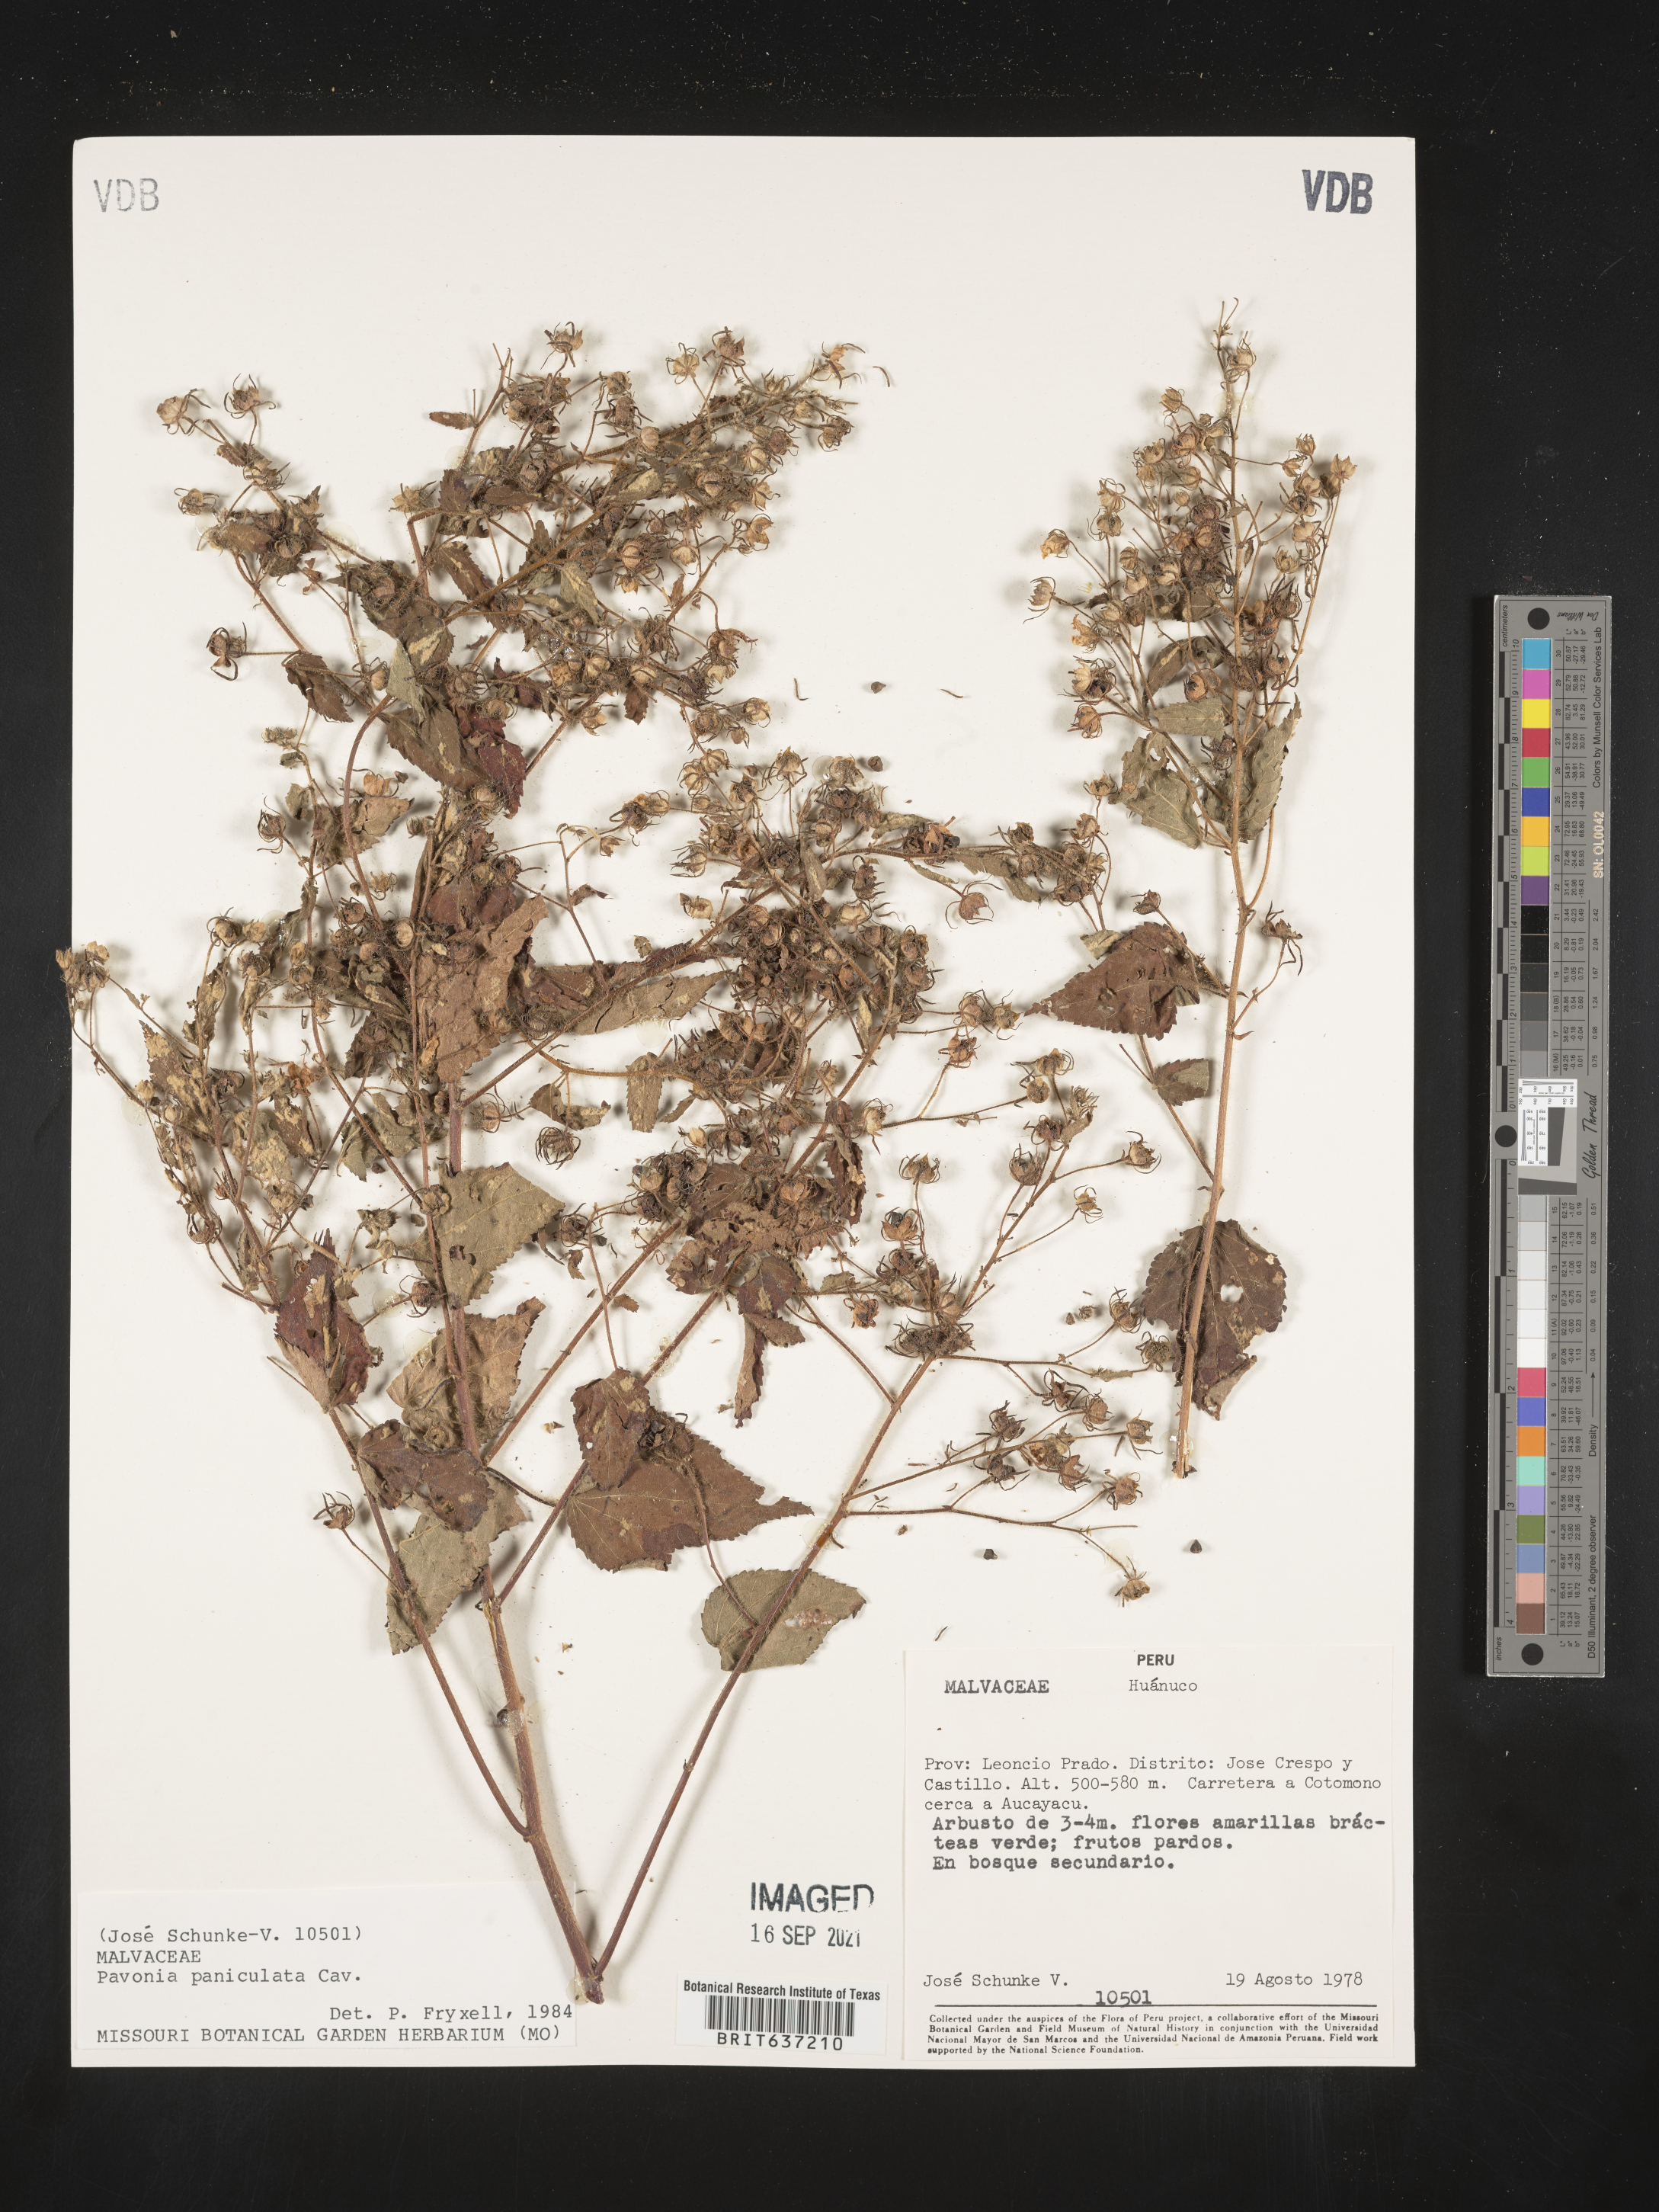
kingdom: Plantae
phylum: Tracheophyta
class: Magnoliopsida
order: Malvales
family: Malvaceae
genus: Pavonia
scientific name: Pavonia
